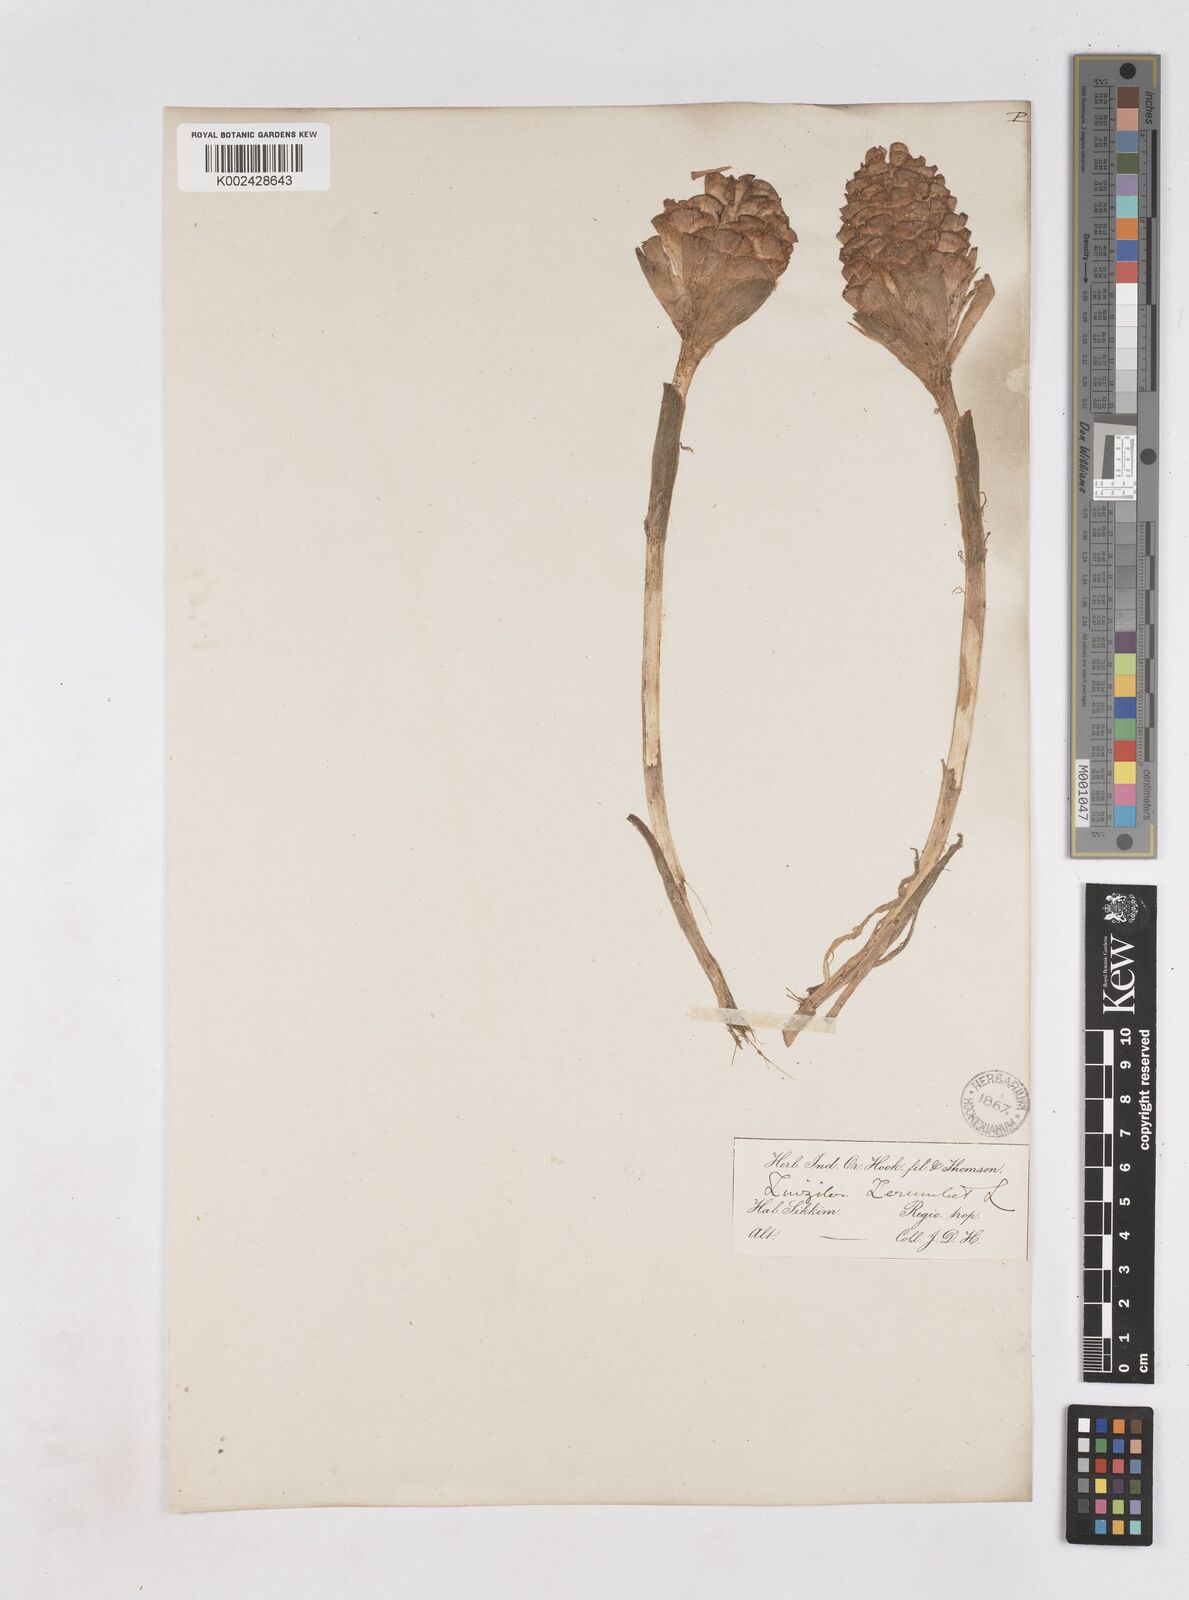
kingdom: Plantae
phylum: Tracheophyta
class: Liliopsida
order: Zingiberales
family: Zingiberaceae
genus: Zingiber
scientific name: Zingiber zerumbet
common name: Bitter ginger
